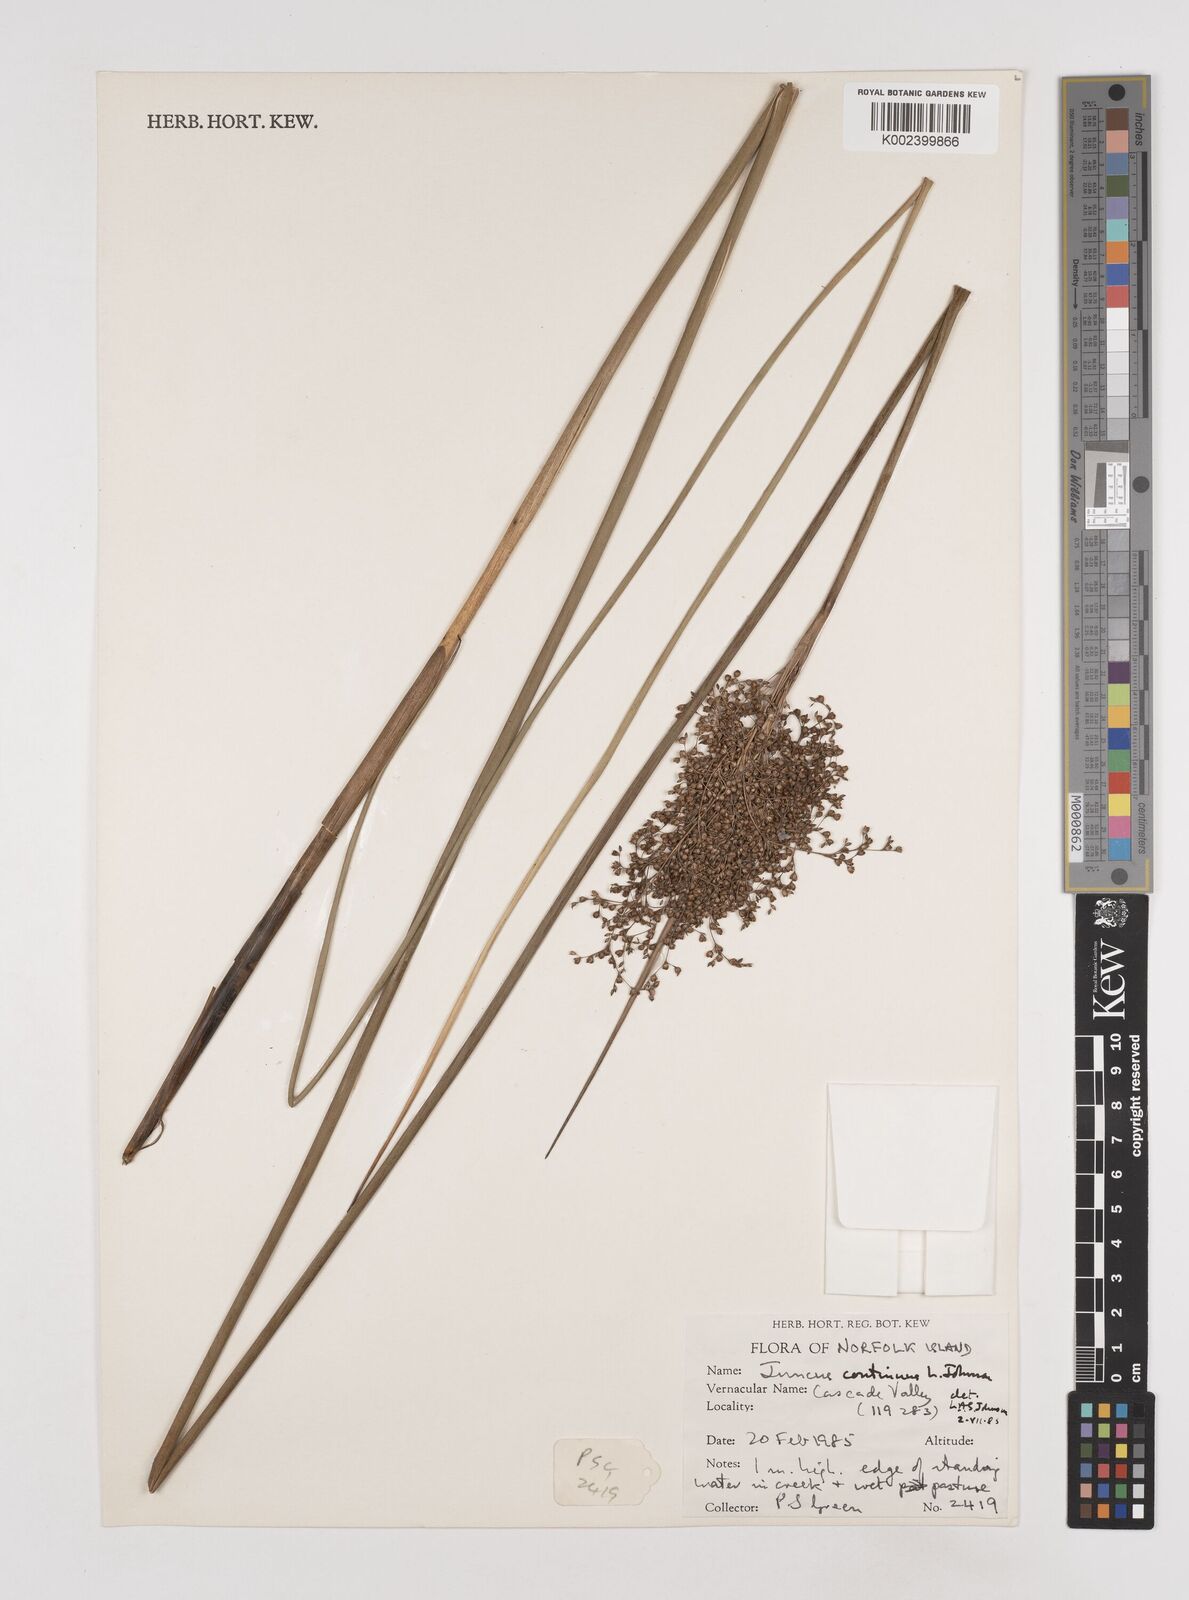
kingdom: Plantae
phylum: Tracheophyta
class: Liliopsida
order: Poales
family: Juncaceae
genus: Juncus
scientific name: Juncus continuus
